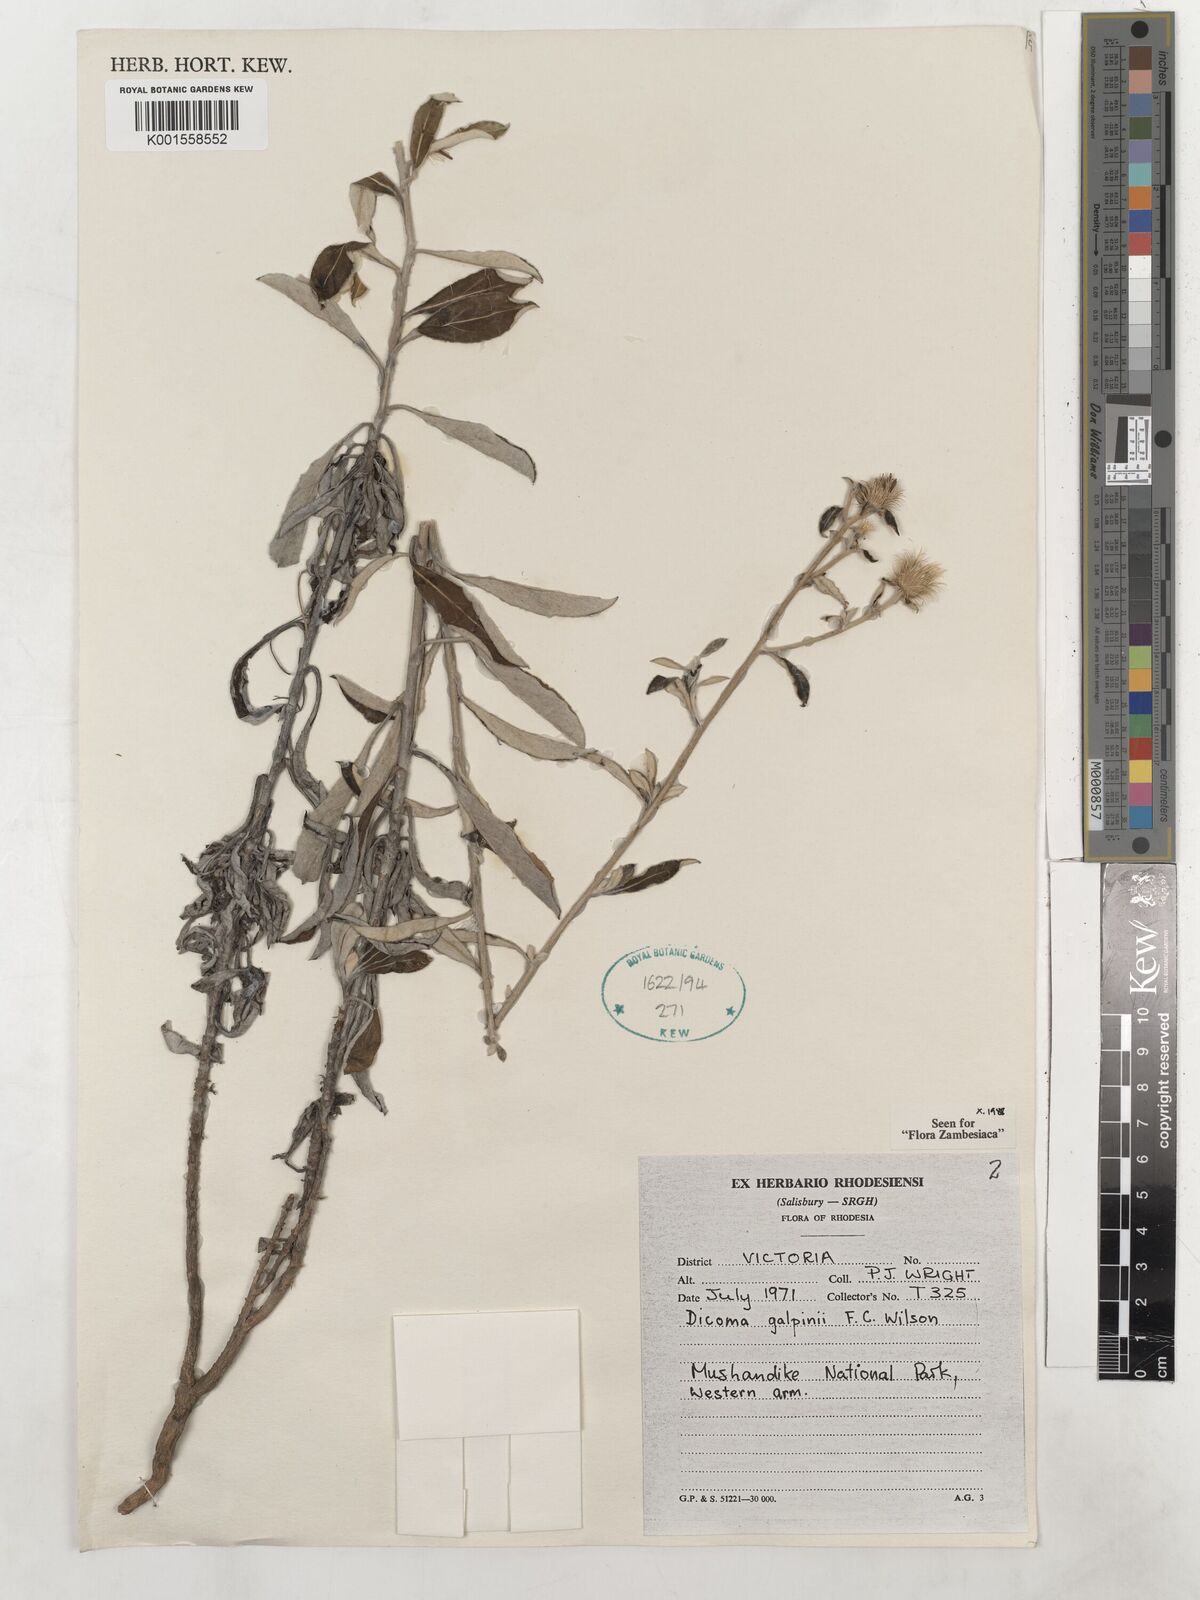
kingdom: Plantae
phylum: Tracheophyta
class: Magnoliopsida
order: Asterales
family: Asteraceae
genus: Dicoma
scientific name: Dicoma galpinii
